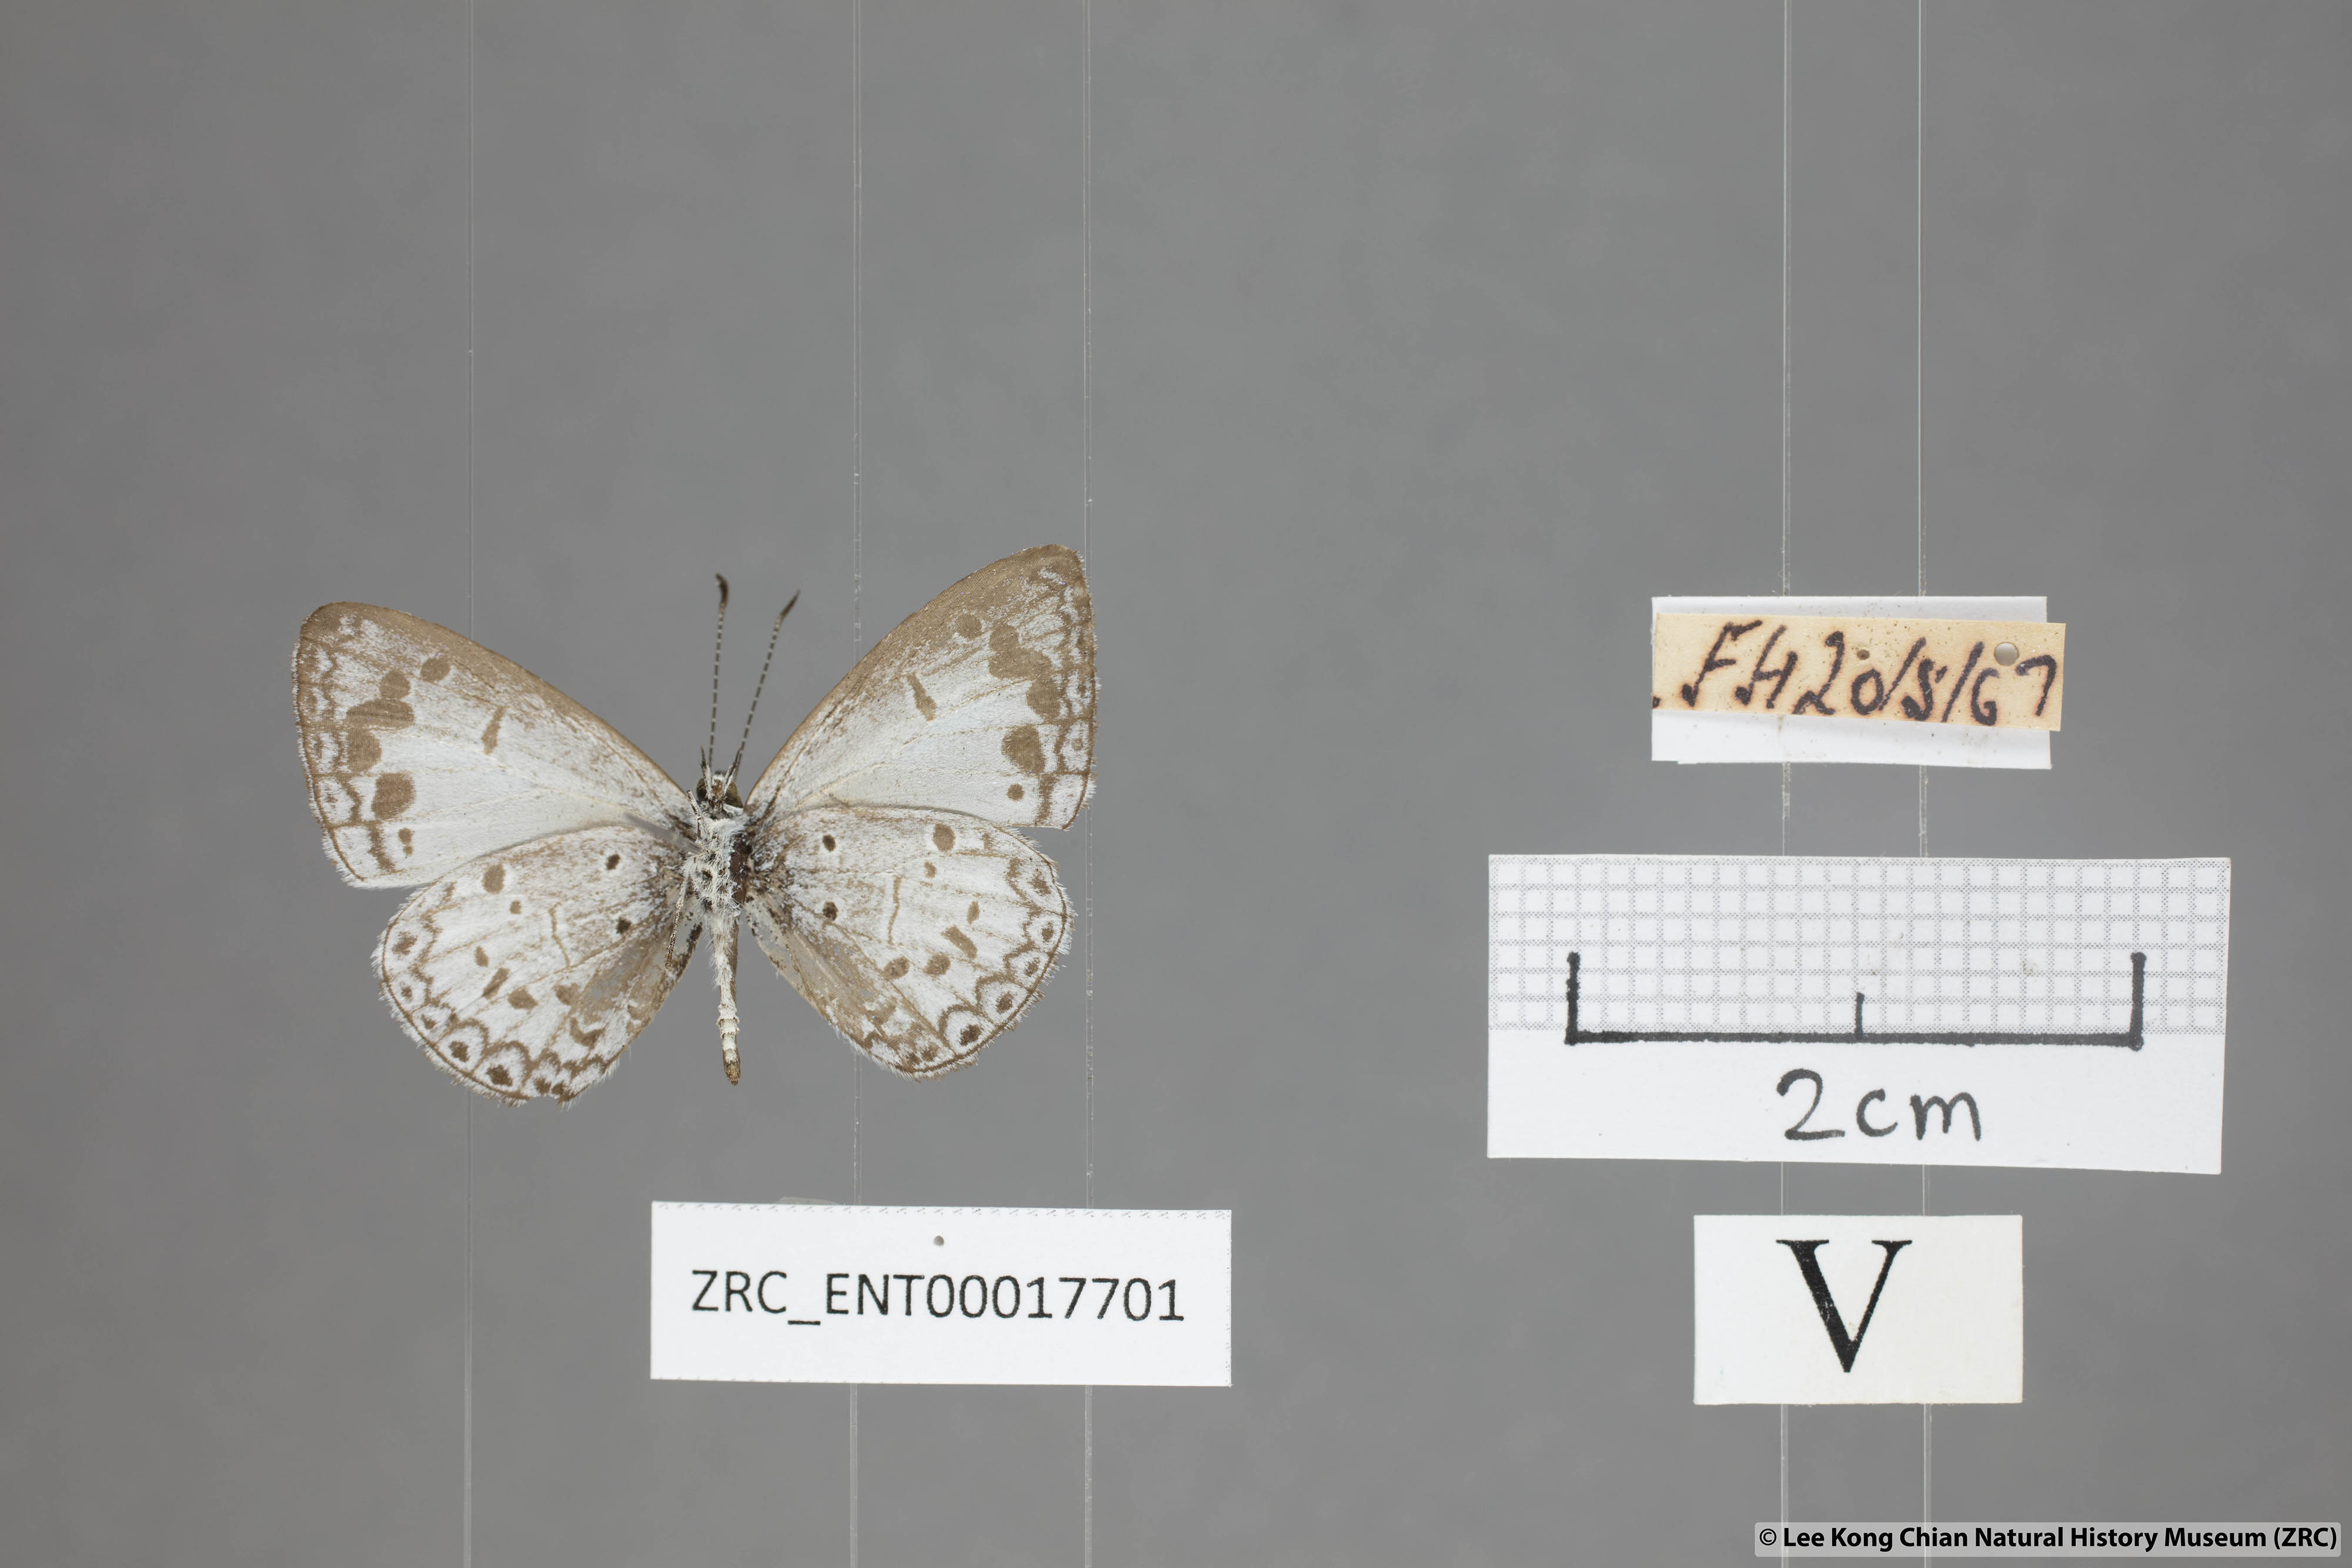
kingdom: Animalia
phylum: Arthropoda
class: Insecta
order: Lepidoptera
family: Lycaenidae
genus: Lycaenopsis
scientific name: Lycaenopsis marginata
